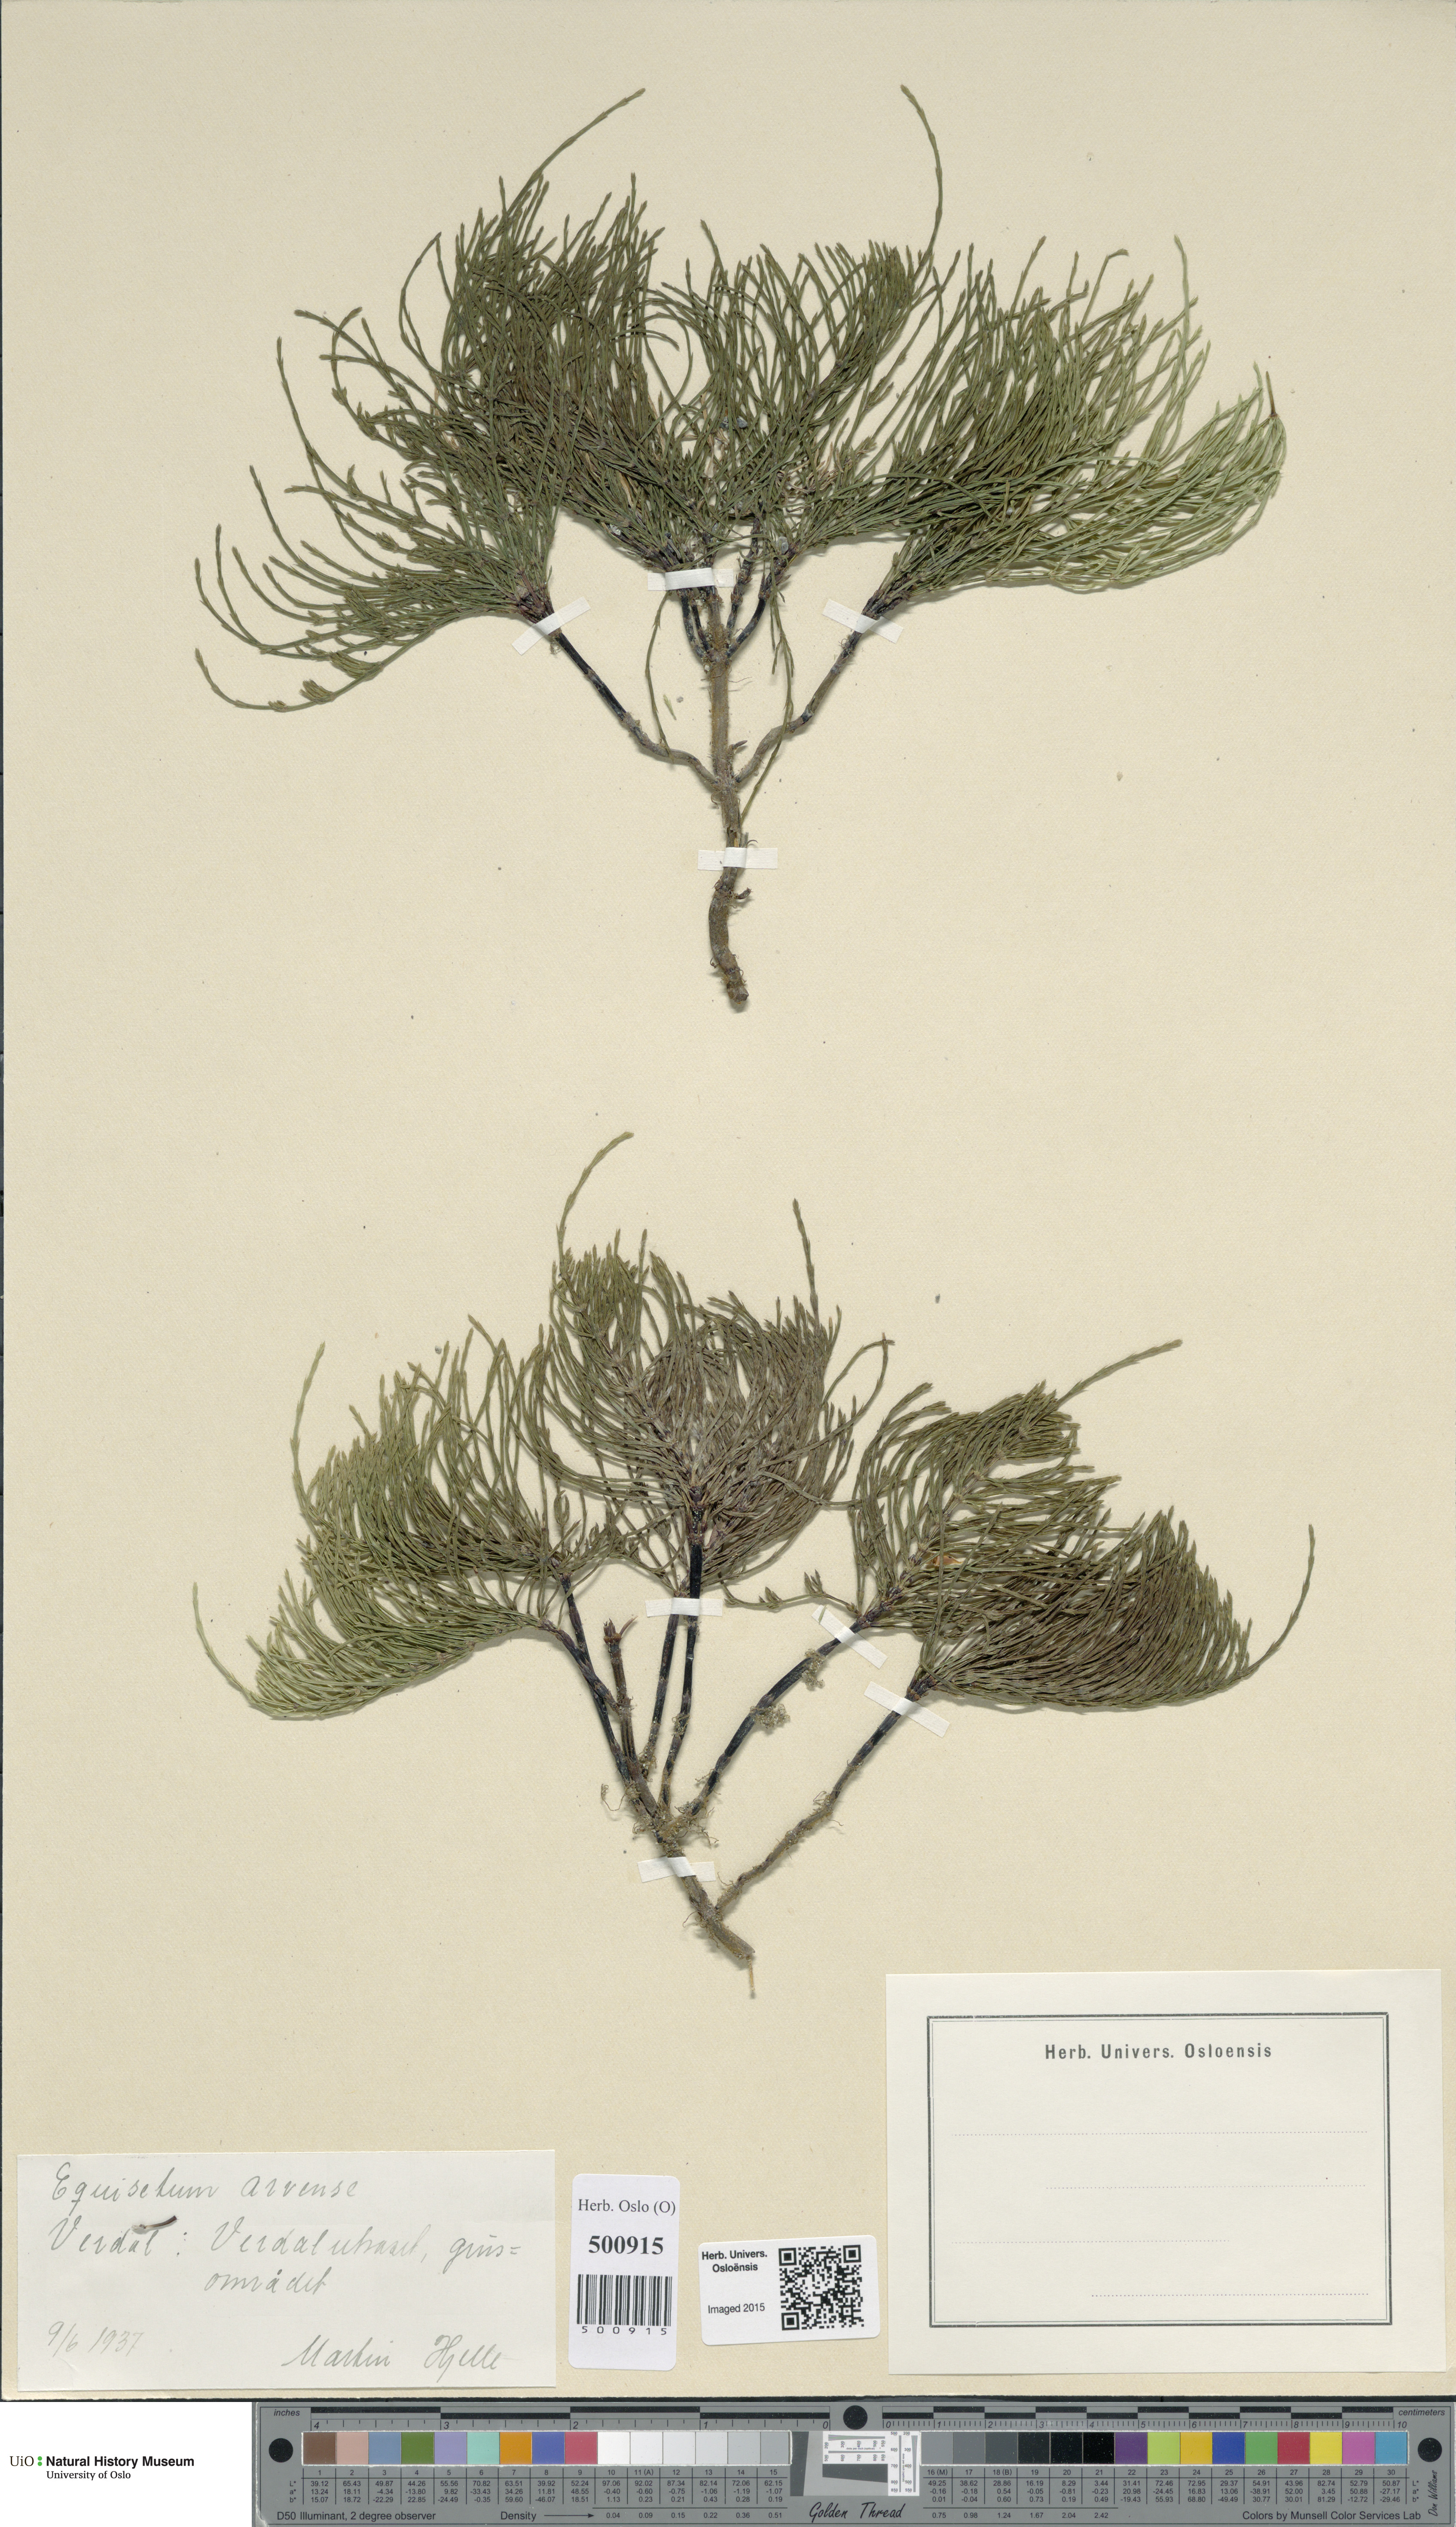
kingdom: Plantae
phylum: Tracheophyta
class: Polypodiopsida
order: Equisetales
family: Equisetaceae
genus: Equisetum
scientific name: Equisetum arvense
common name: Field horsetail
